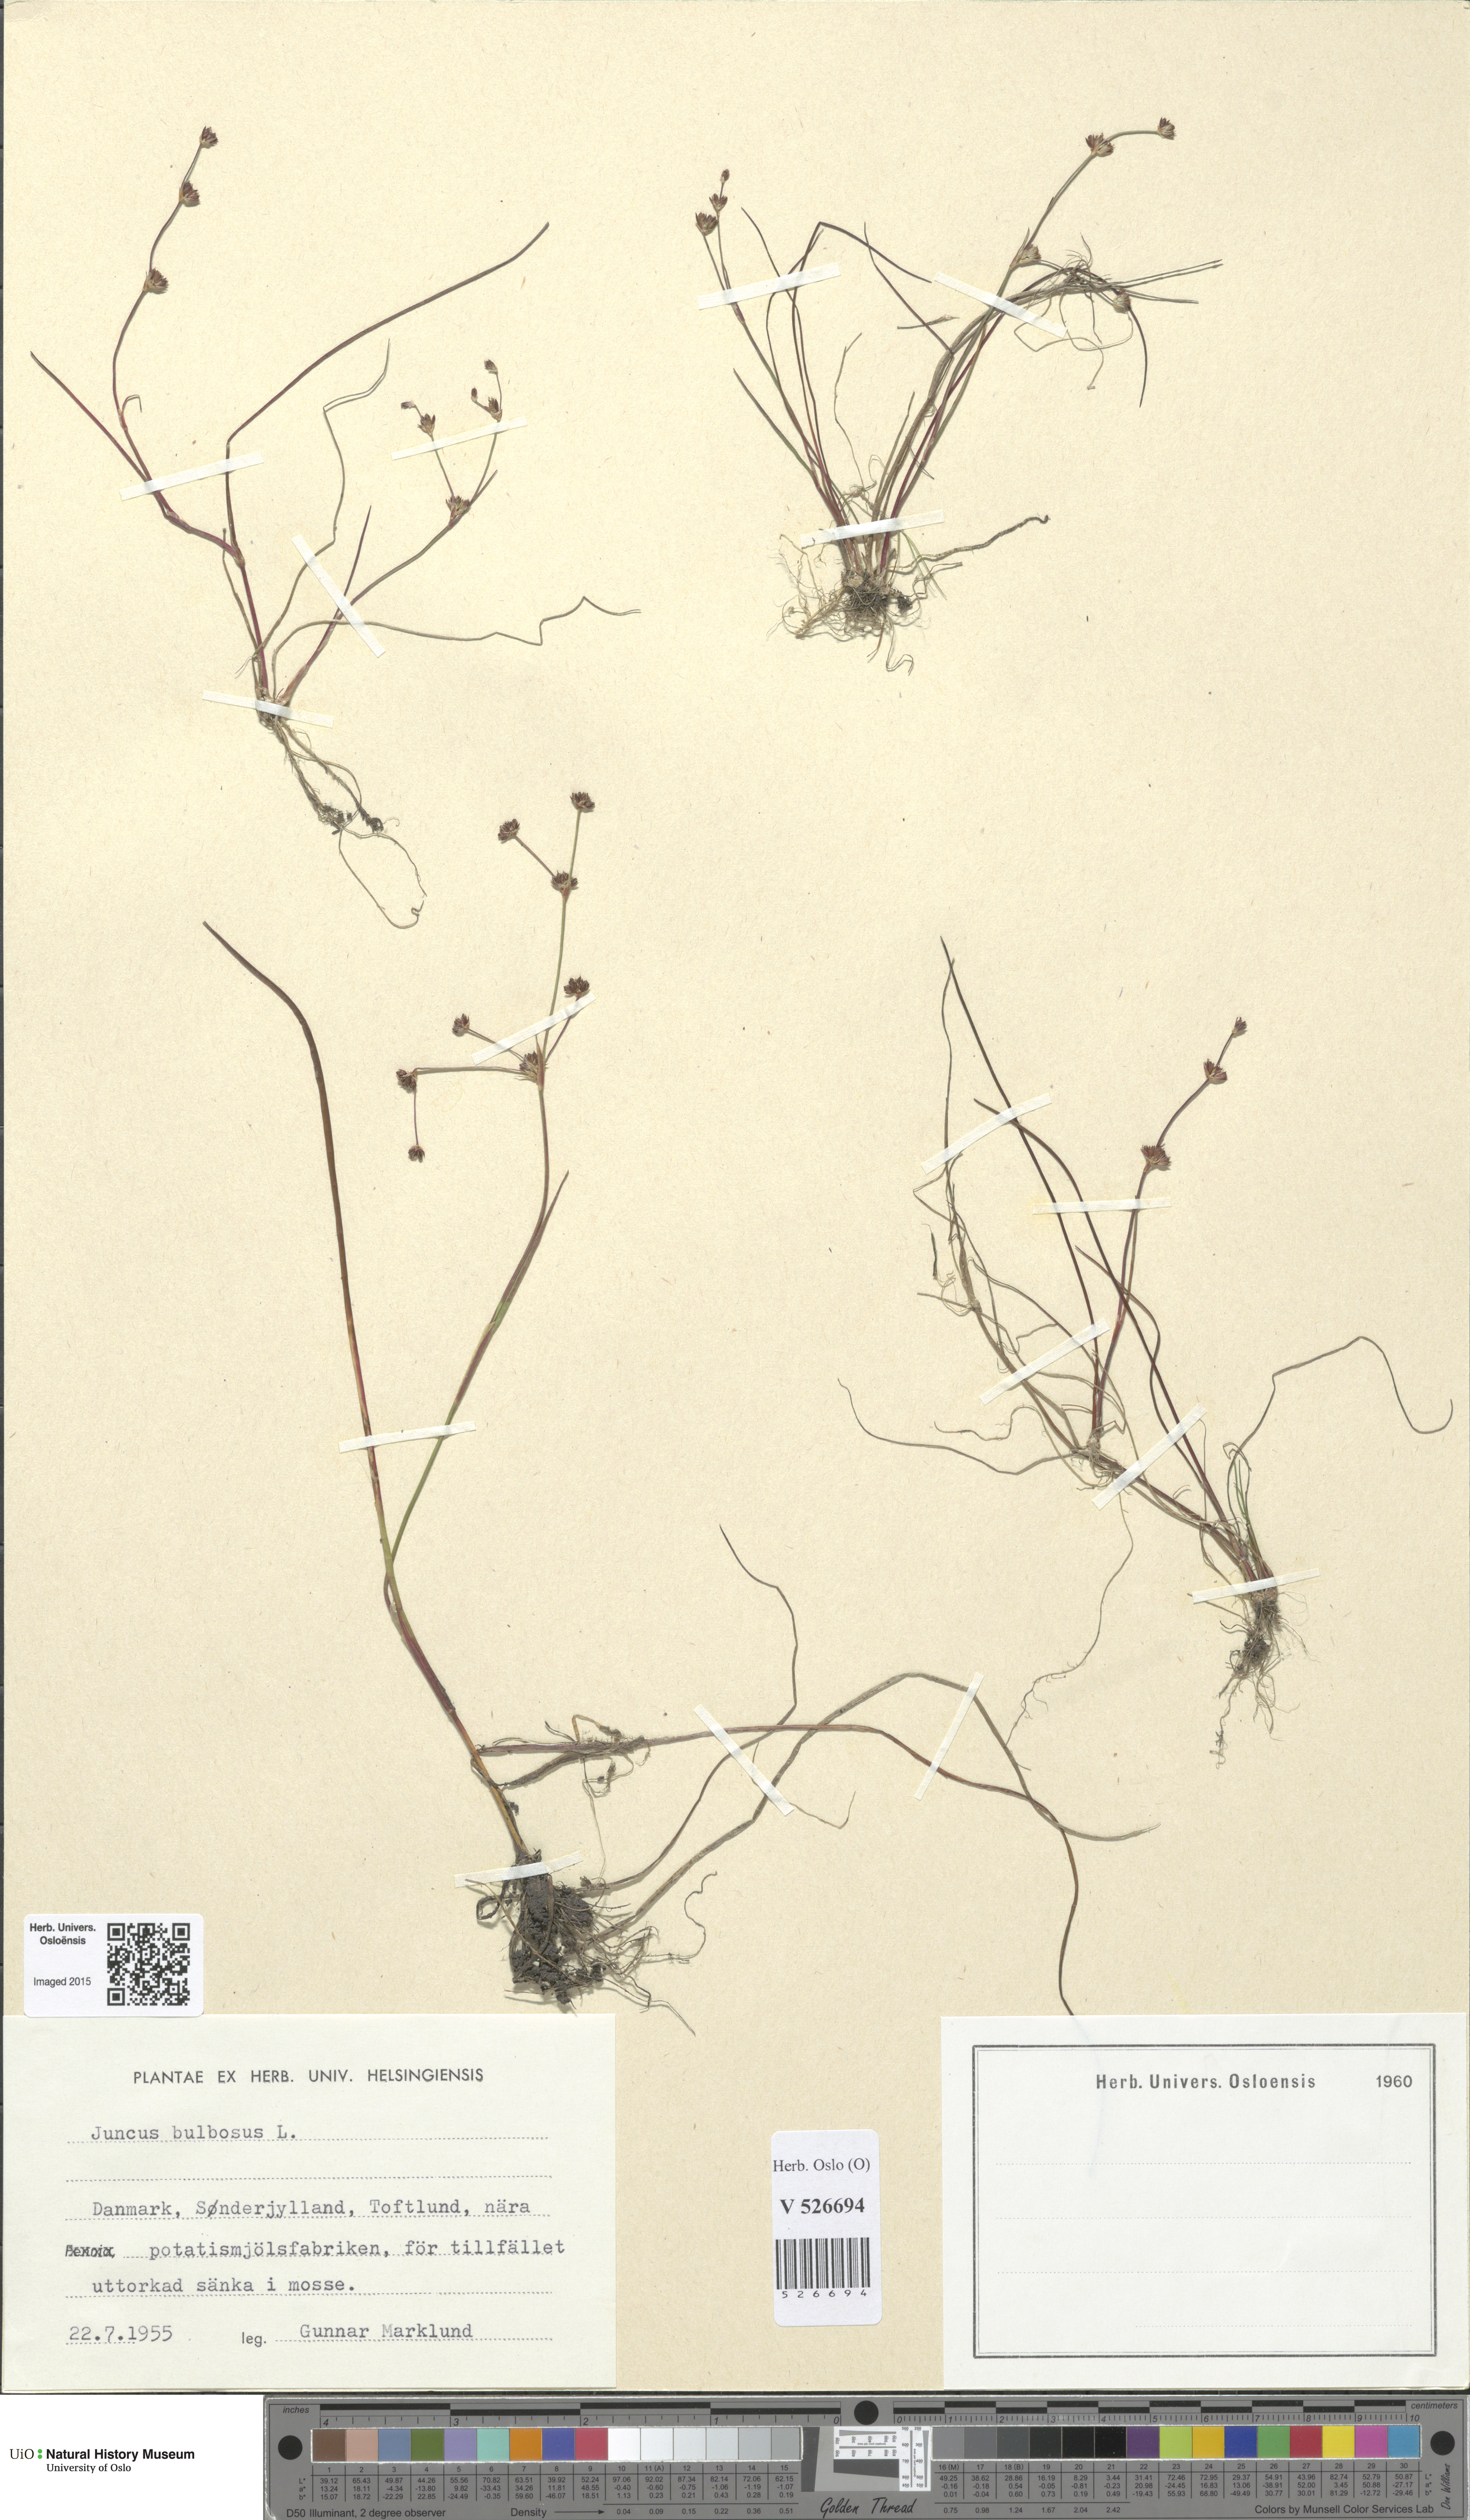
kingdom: Plantae
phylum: Tracheophyta
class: Liliopsida
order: Poales
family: Juncaceae
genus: Juncus
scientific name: Juncus bulbosus
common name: Bulbous rush
